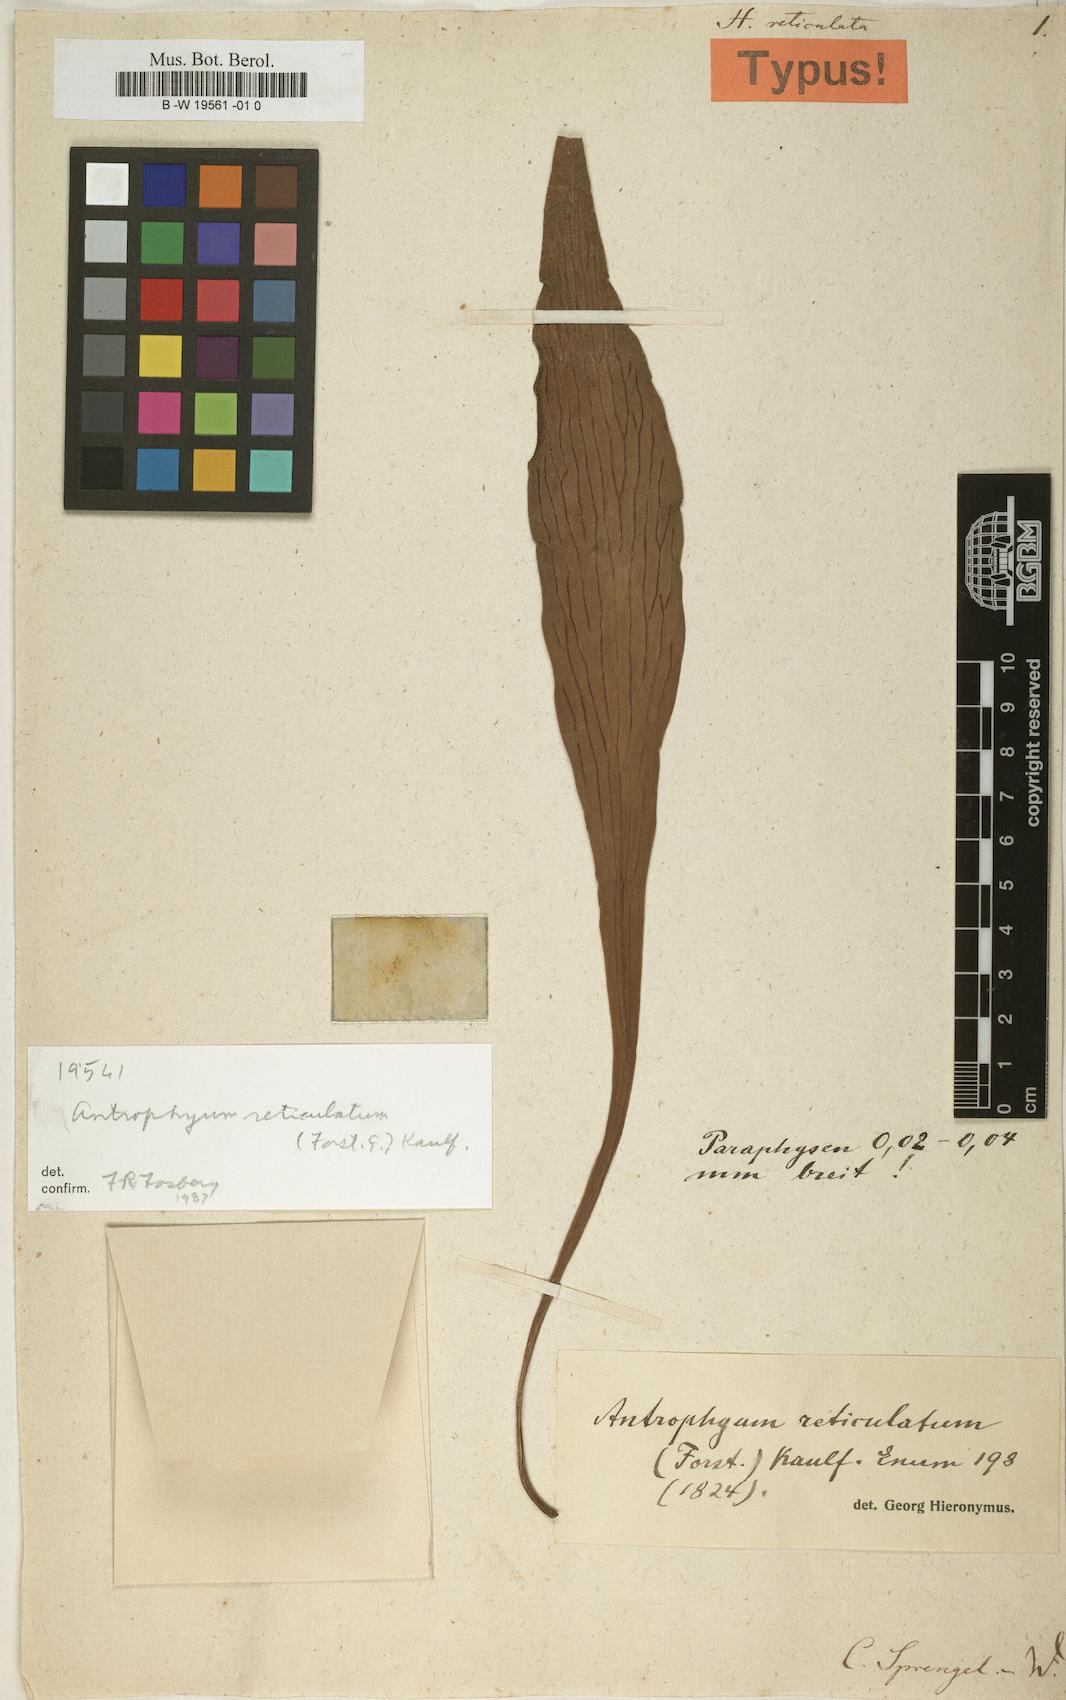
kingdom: Plantae
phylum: Tracheophyta
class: Polypodiopsida
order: Polypodiales
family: Pteridaceae
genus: Antrophyum
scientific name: Antrophyum reticulatum
